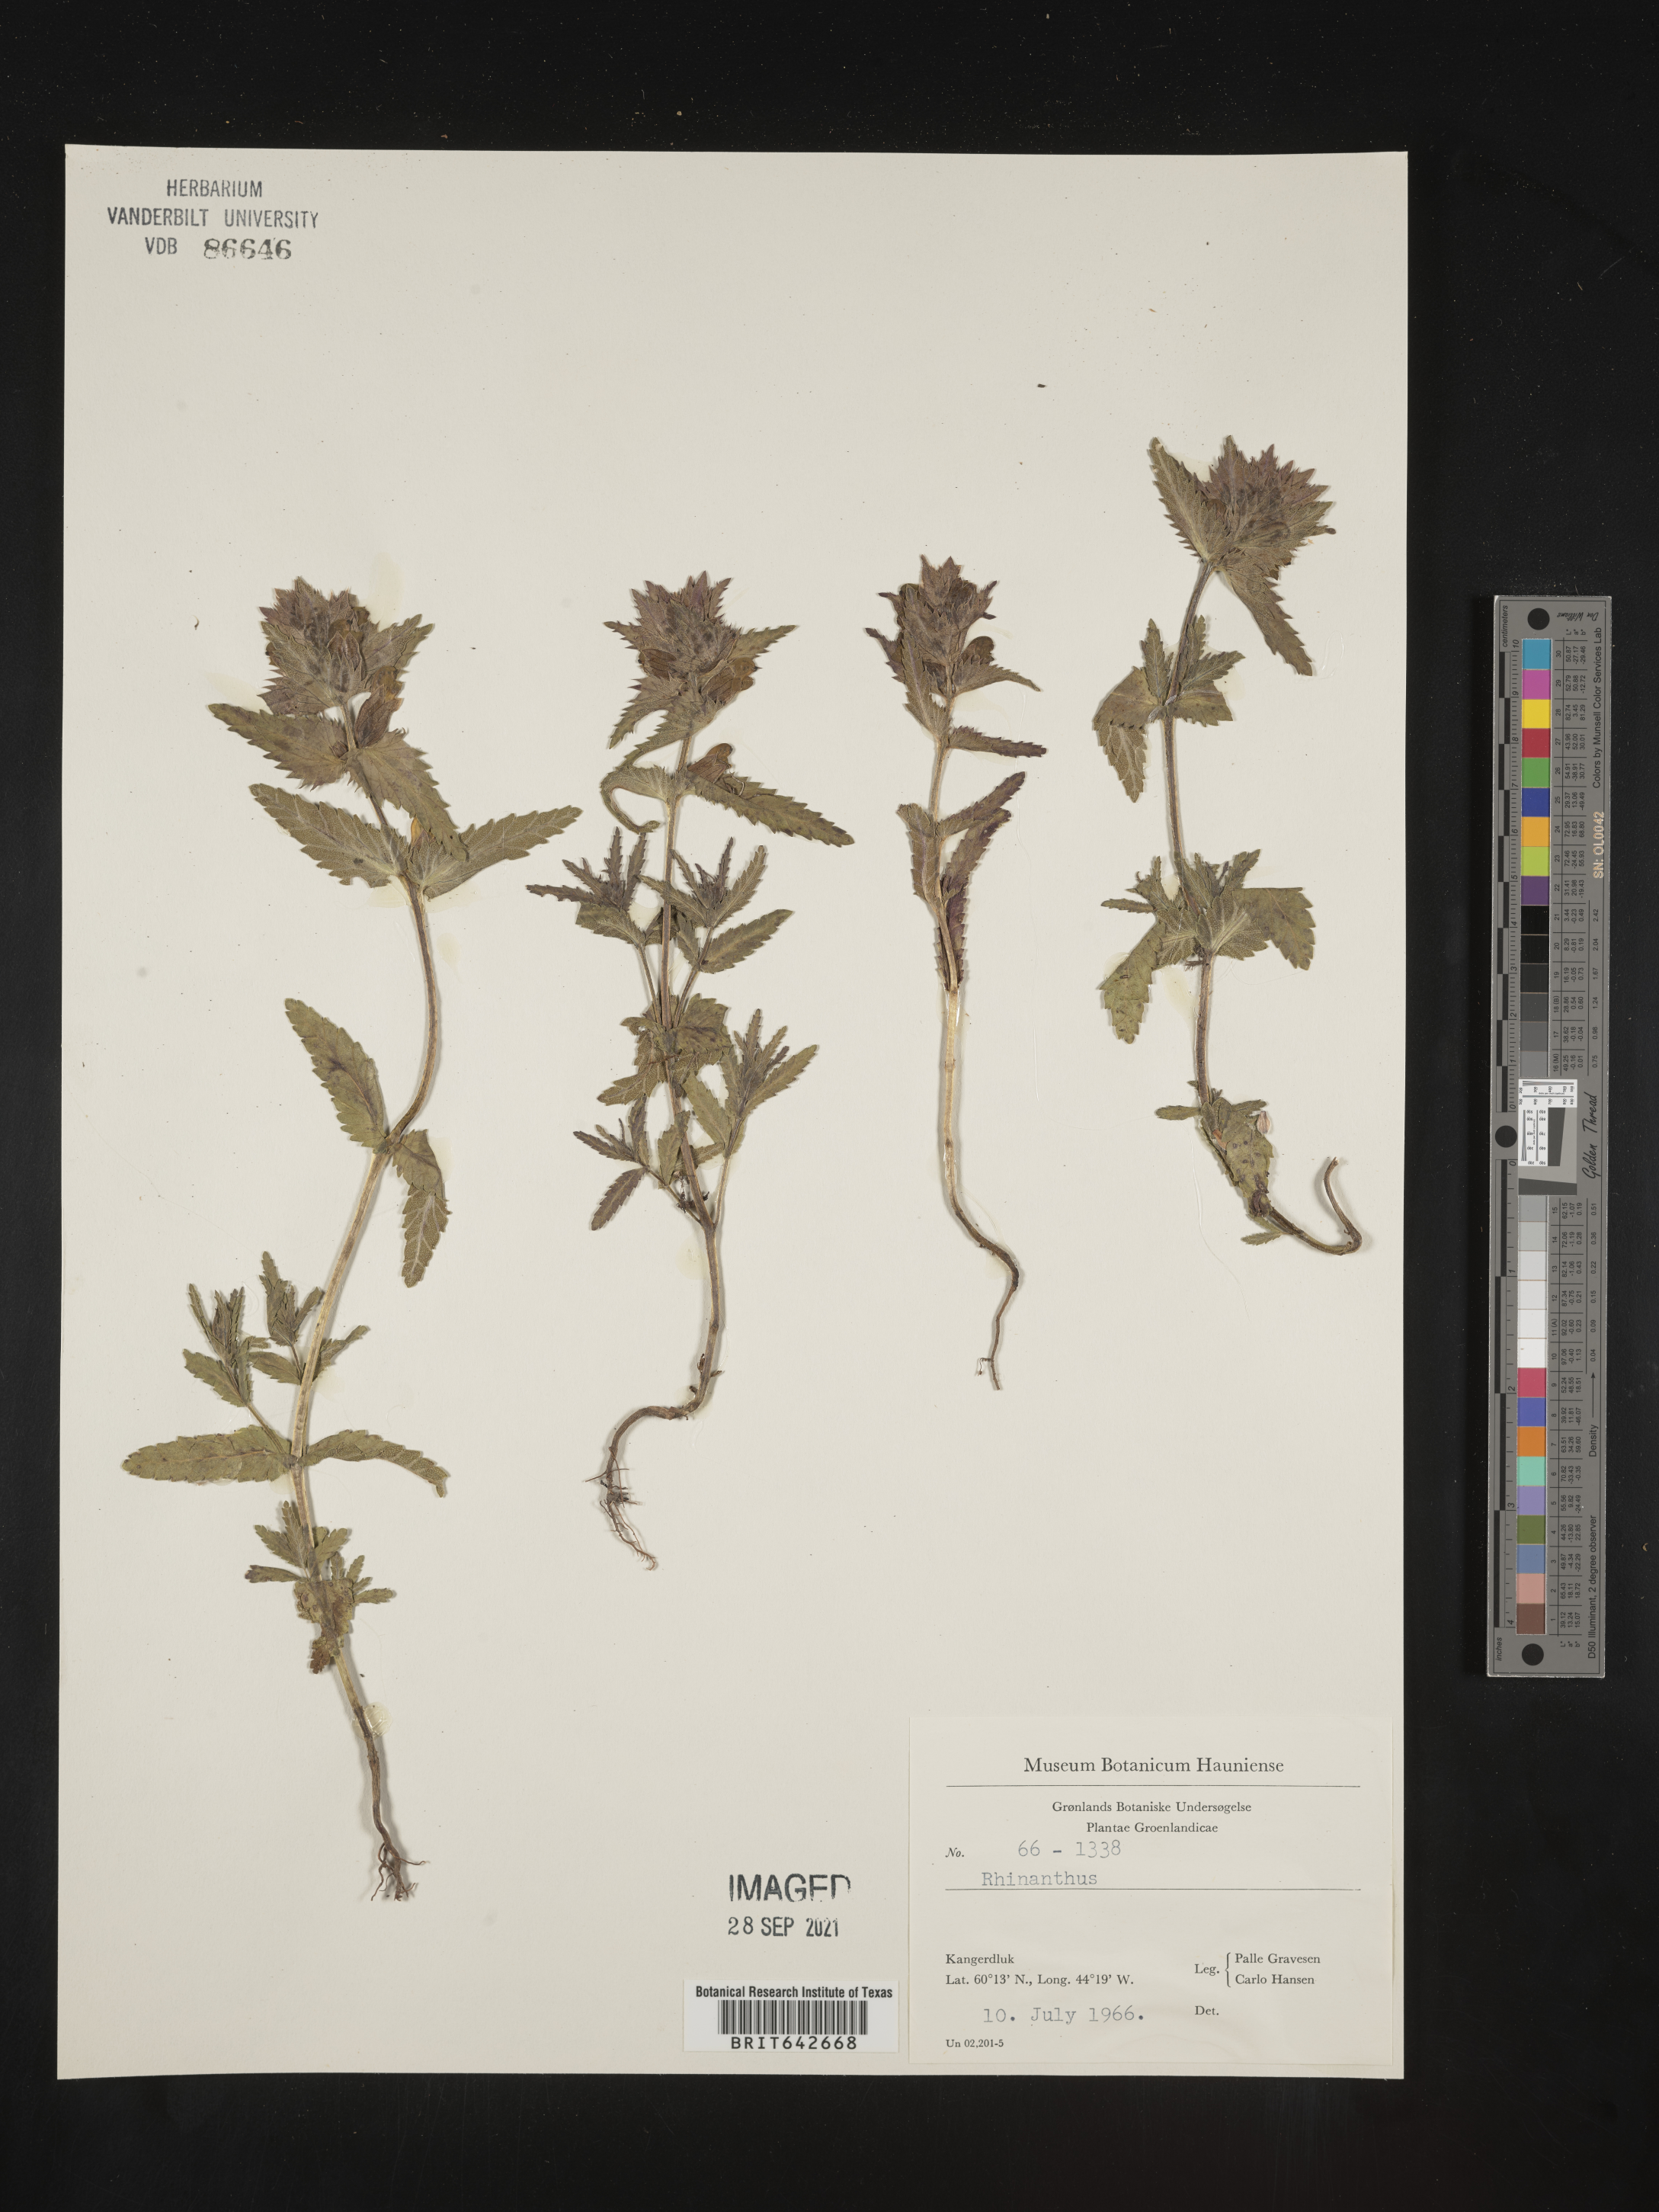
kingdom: Plantae
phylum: Tracheophyta
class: Magnoliopsida
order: Lamiales
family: Orobanchaceae
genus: Rhinanthus
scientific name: Rhinanthus
